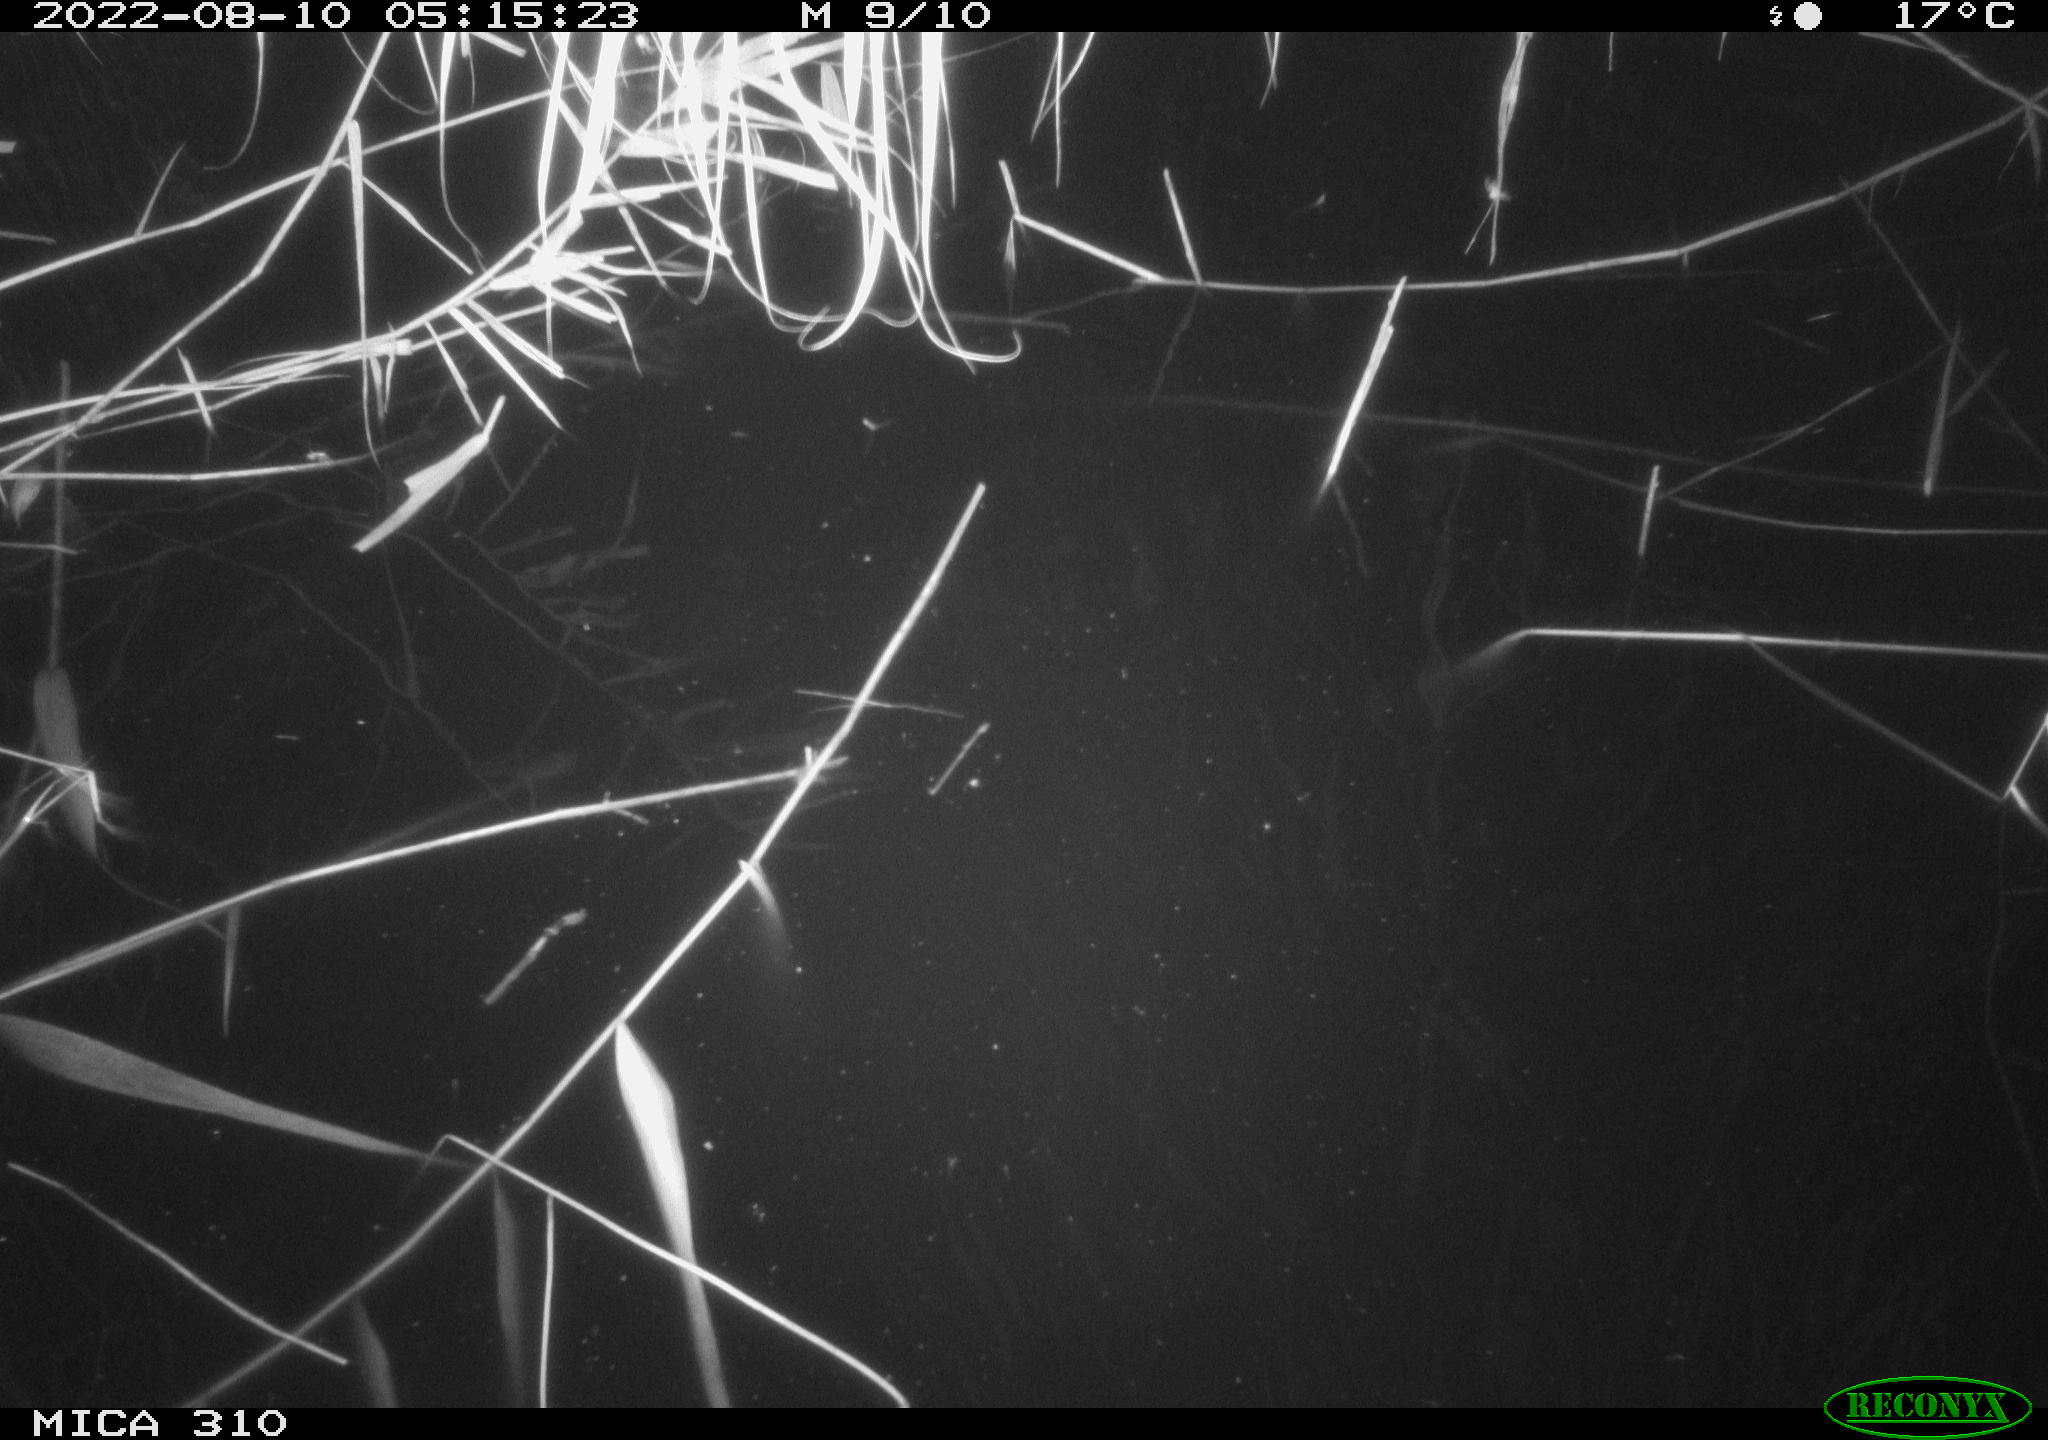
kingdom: Animalia
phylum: Chordata
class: Aves
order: Anseriformes
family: Anatidae
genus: Anas
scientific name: Anas platyrhynchos
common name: Mallard
